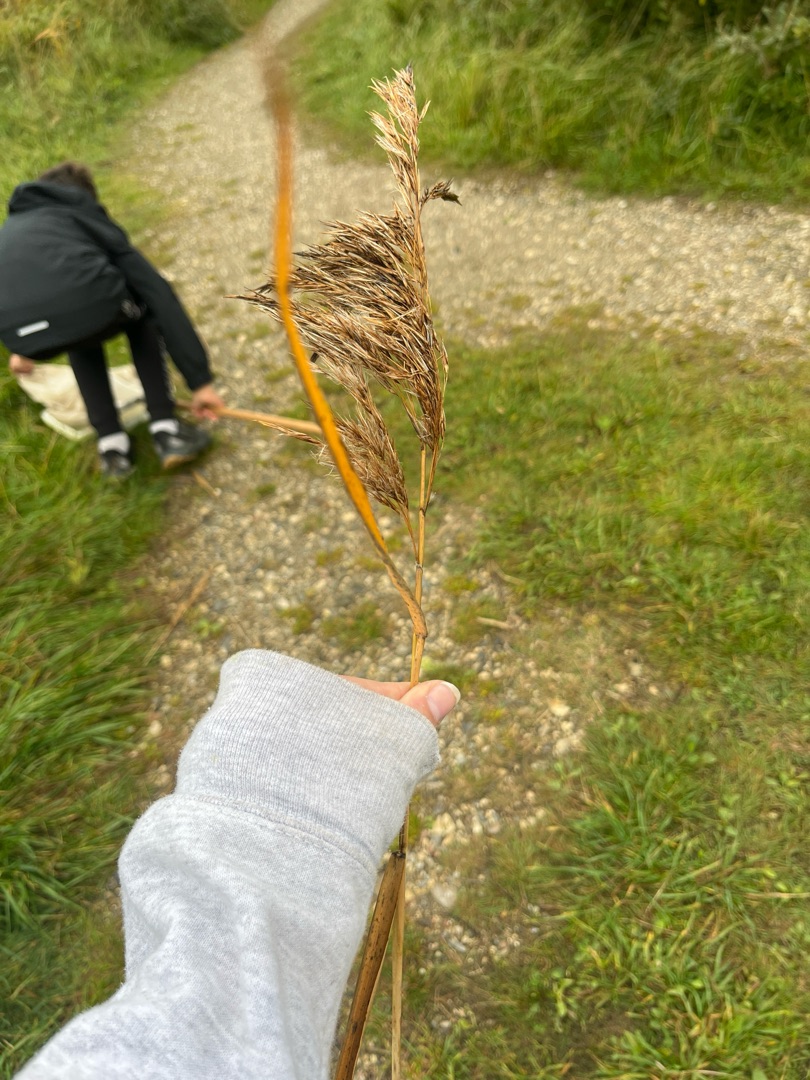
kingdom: Plantae
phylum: Tracheophyta
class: Liliopsida
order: Poales
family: Poaceae
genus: Phragmites
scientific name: Phragmites australis
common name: Tagrør
